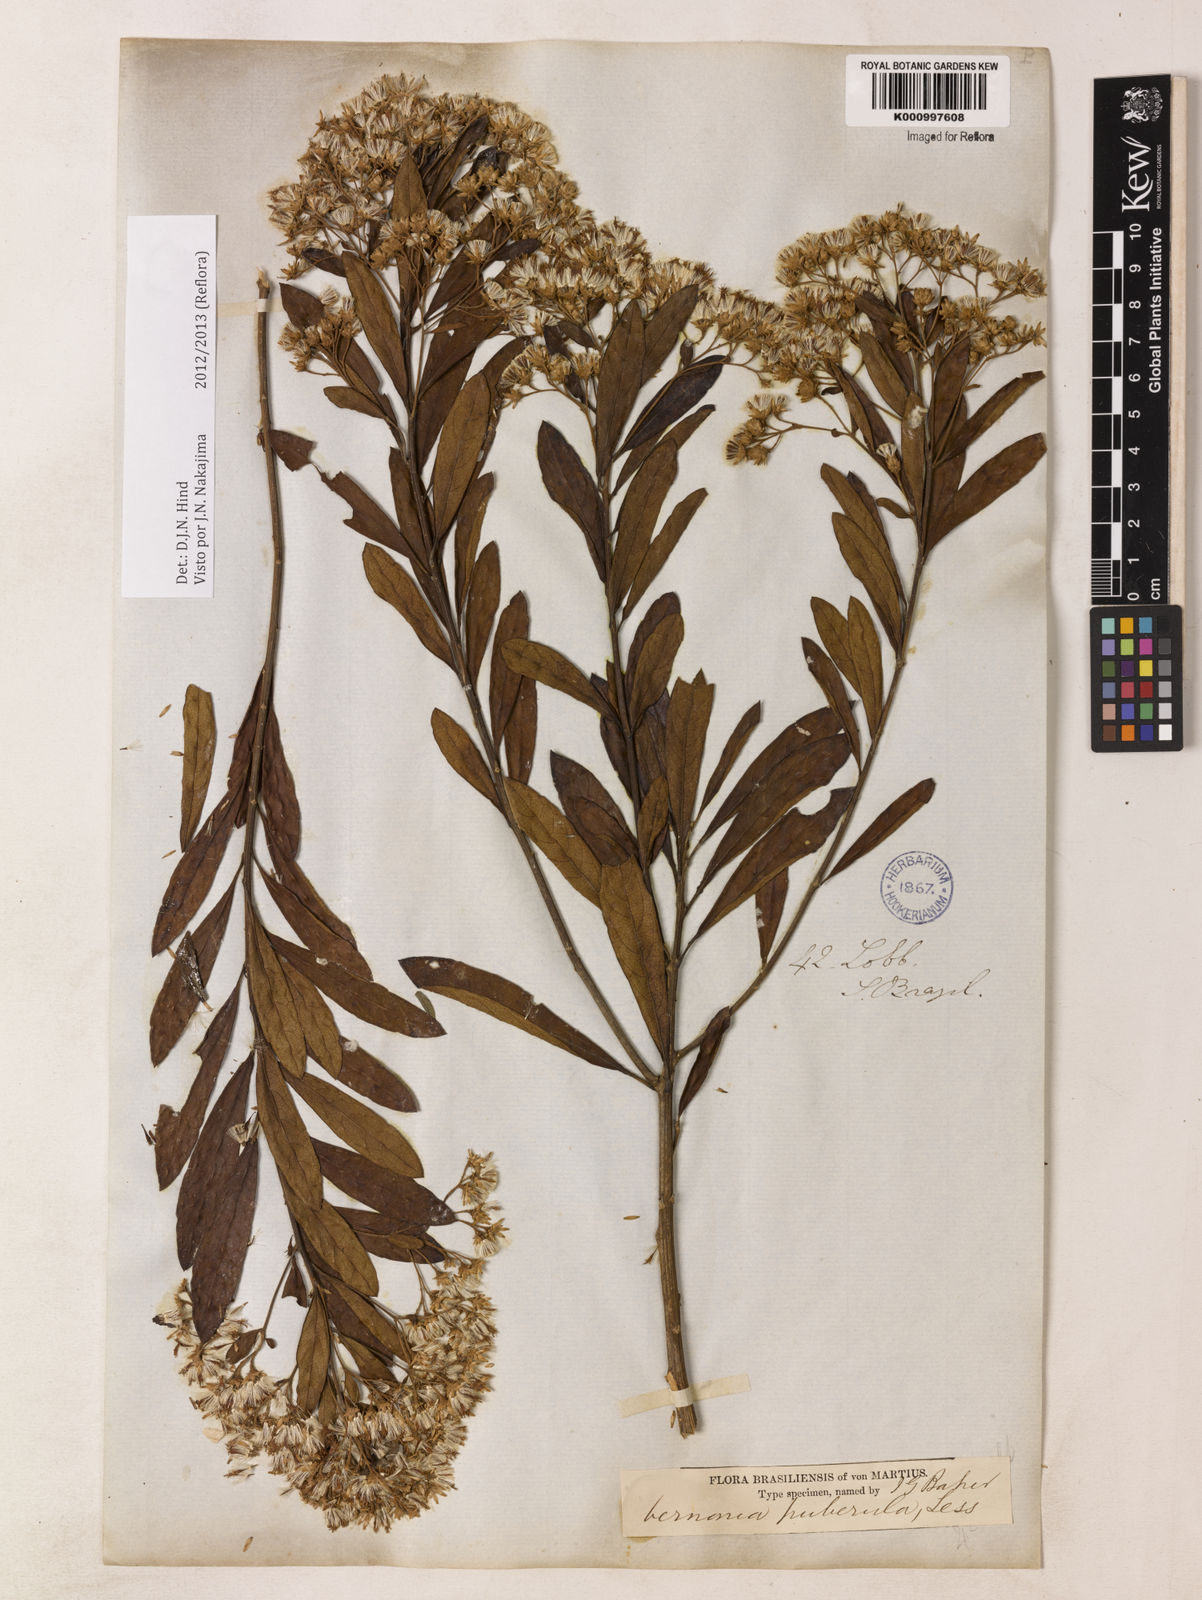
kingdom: Plantae
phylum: Tracheophyta
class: Magnoliopsida
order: Asterales
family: Asteraceae
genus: Vernonanthura
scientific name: Vernonanthura puberula
